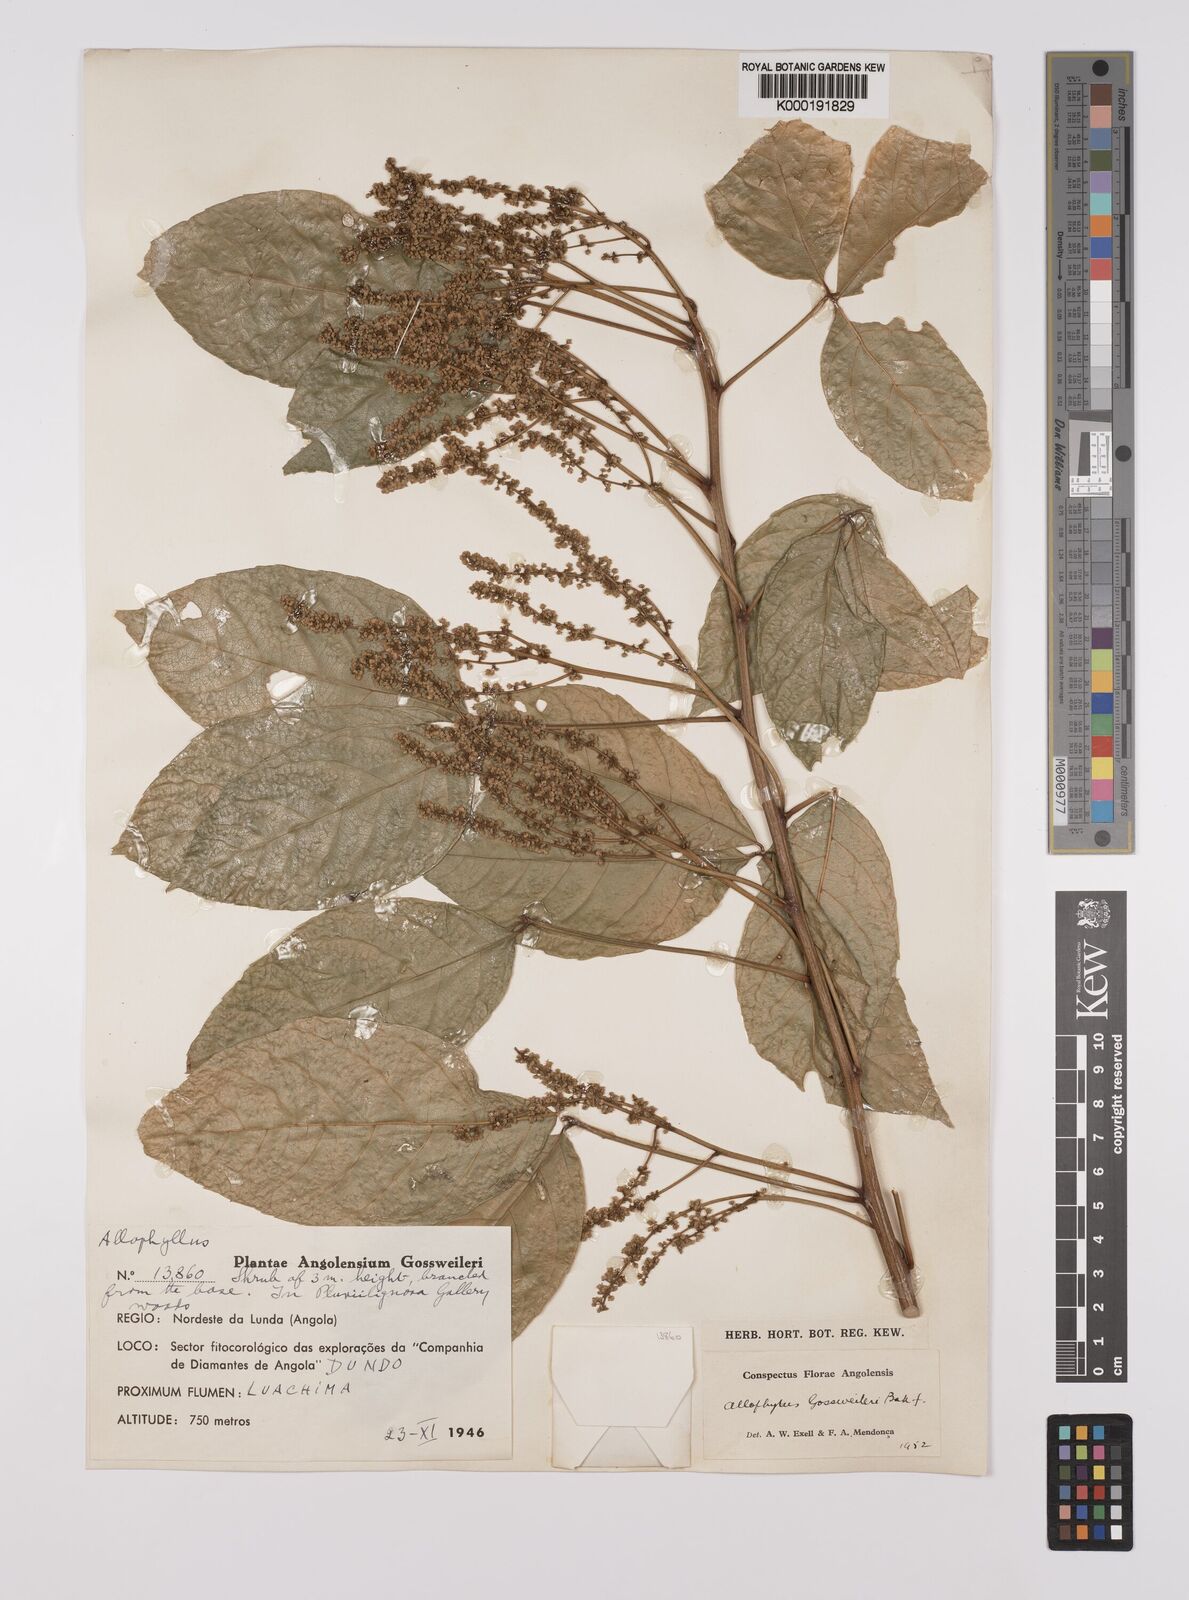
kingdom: Plantae
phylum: Tracheophyta
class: Magnoliopsida
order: Sapindales
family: Sapindaceae
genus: Allophylus
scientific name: Allophylus gossweileri
